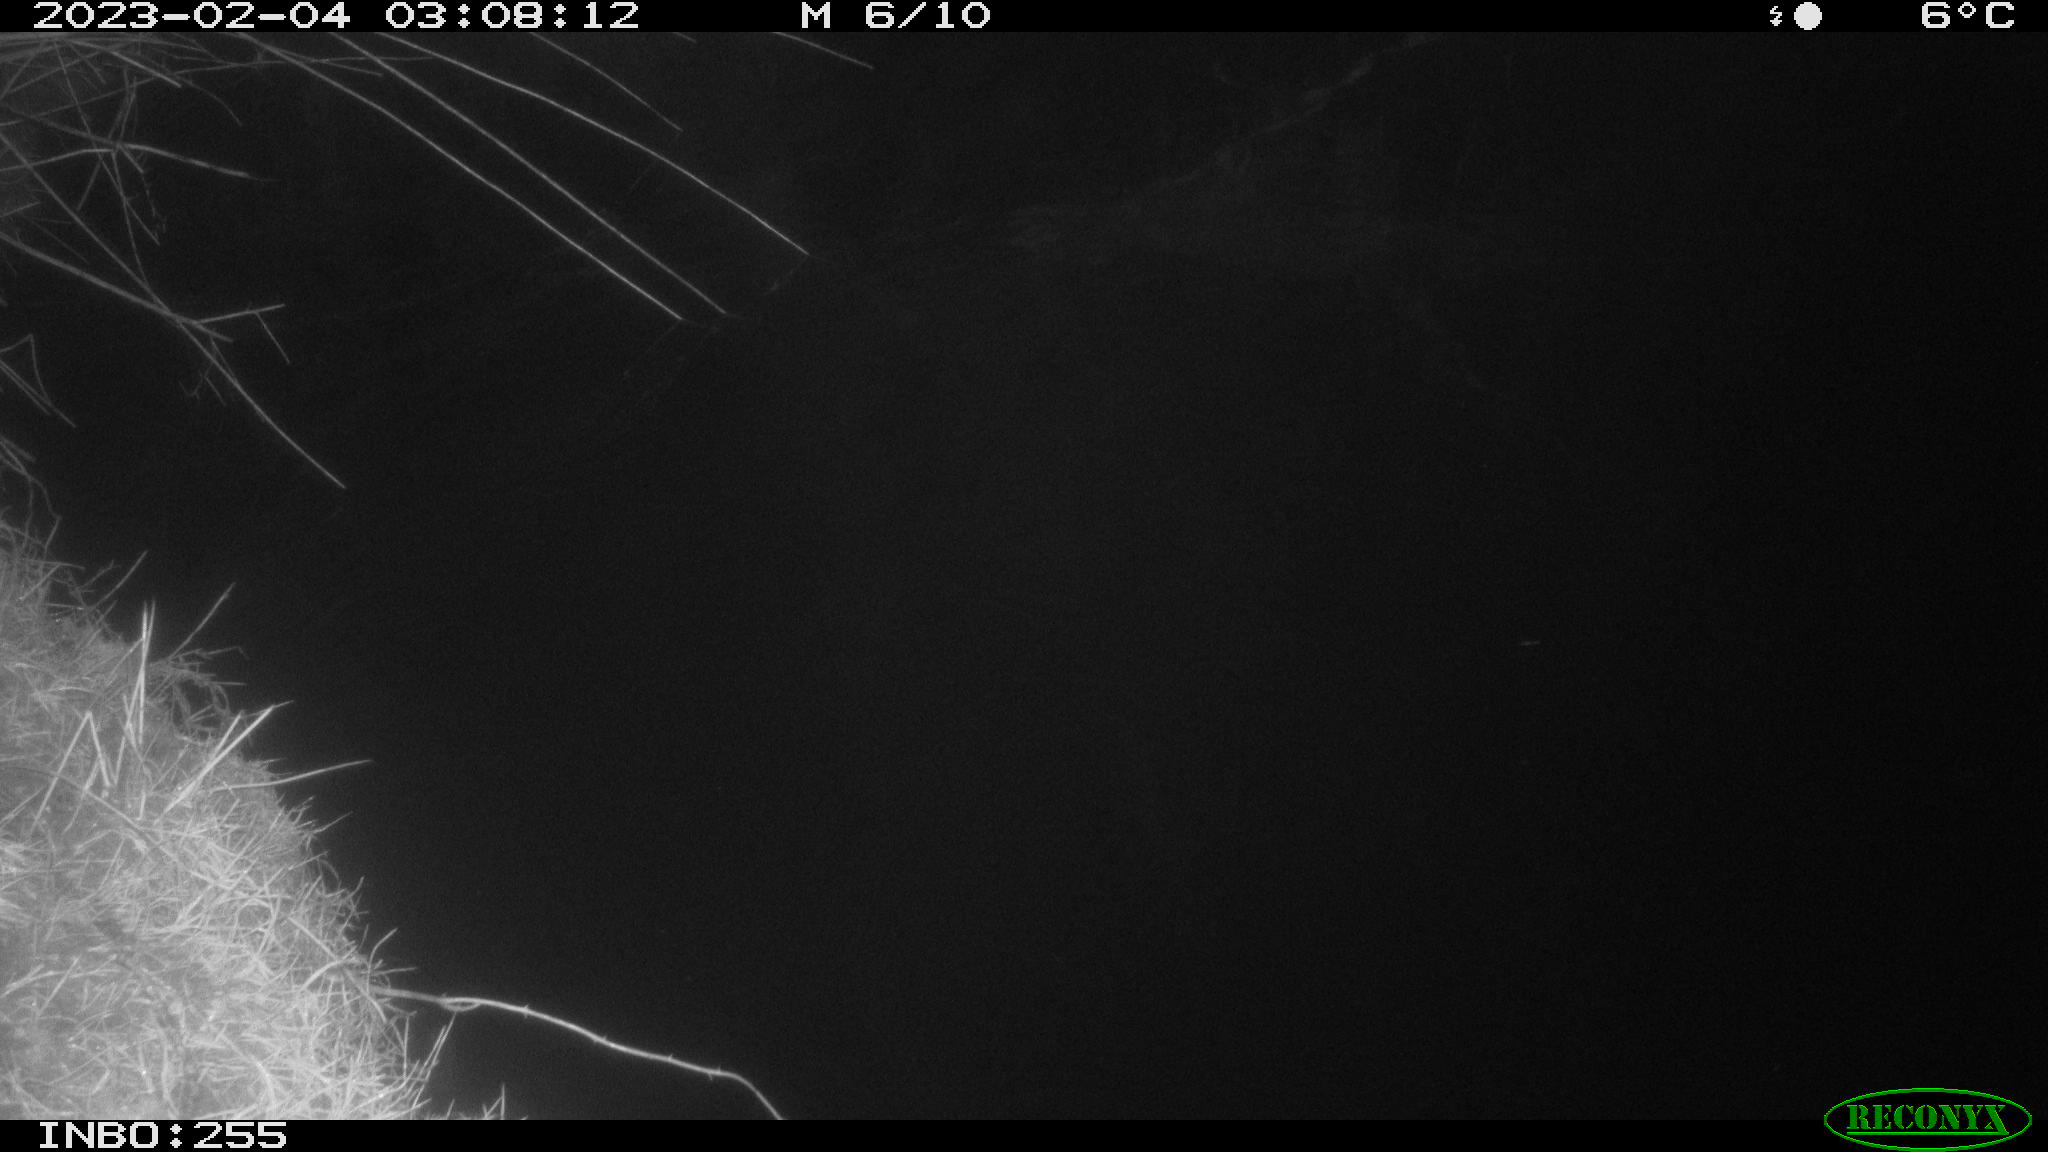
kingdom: Animalia
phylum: Chordata
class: Aves
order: Anseriformes
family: Anatidae
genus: Anas
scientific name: Anas
